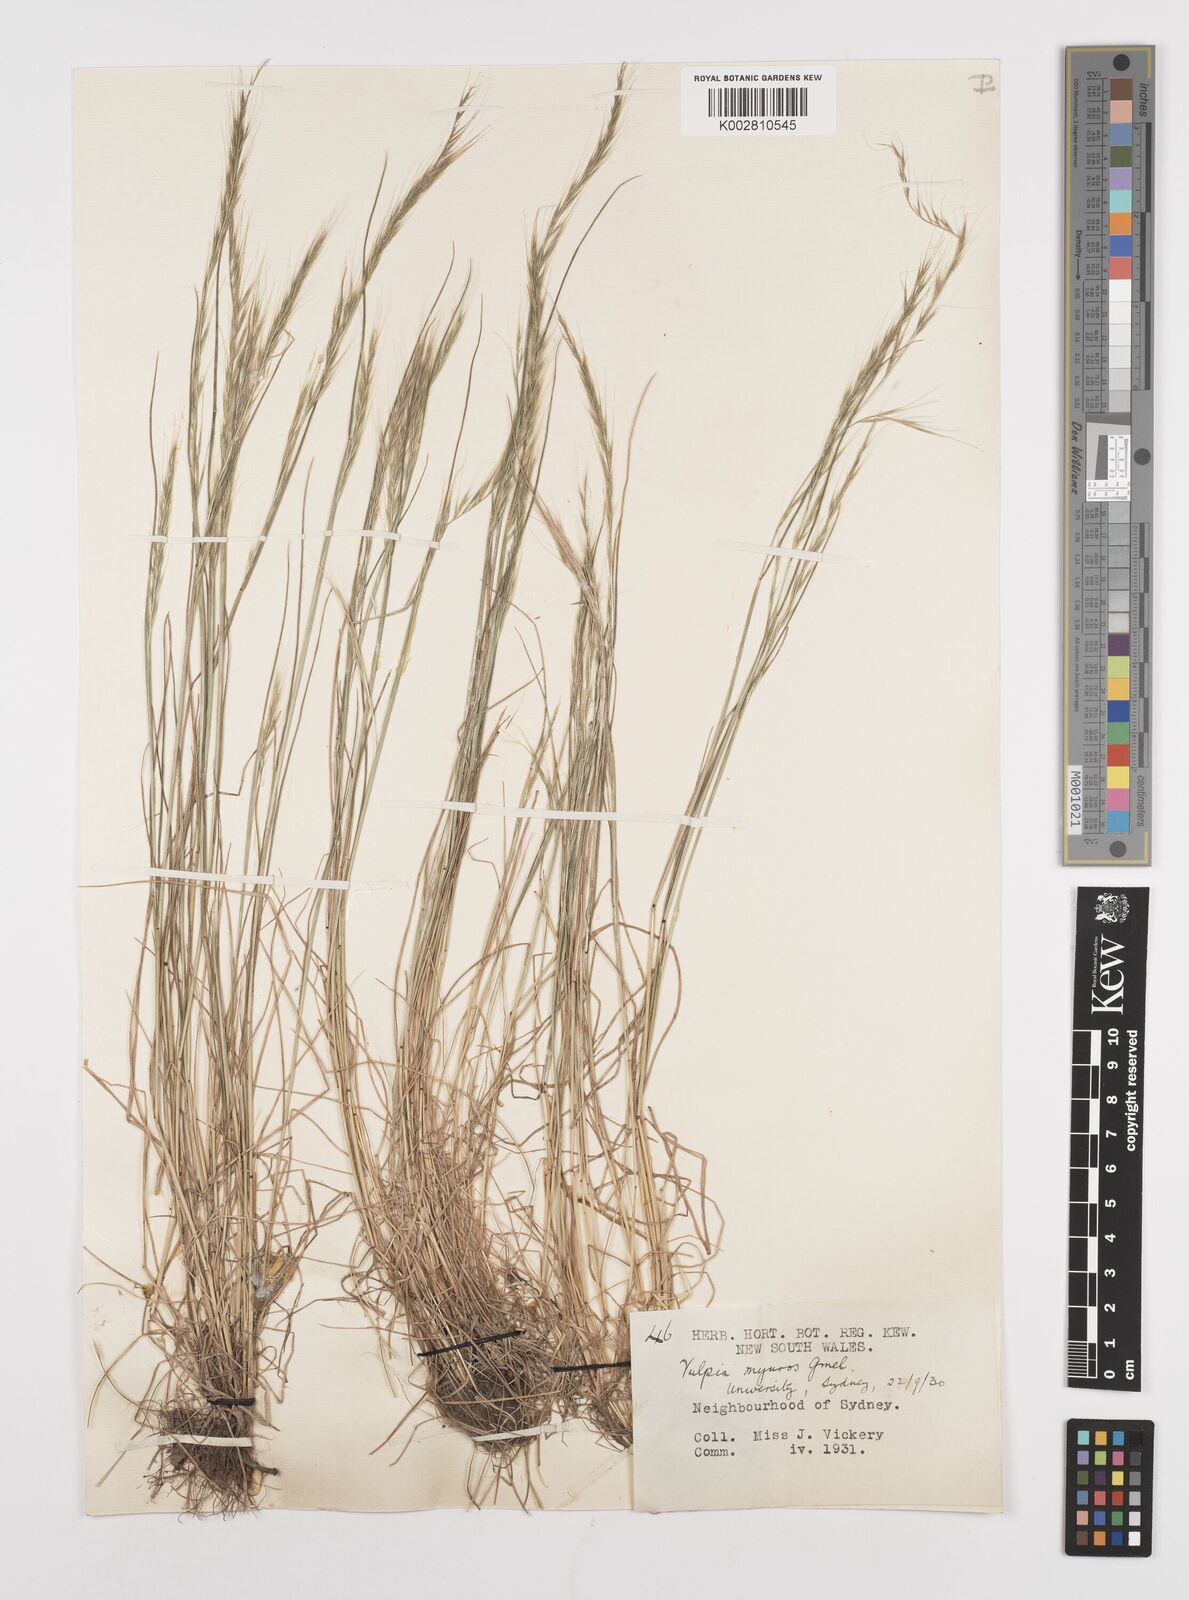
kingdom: Plantae
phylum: Tracheophyta
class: Liliopsida
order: Poales
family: Poaceae
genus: Festuca
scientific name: Festuca myuros
